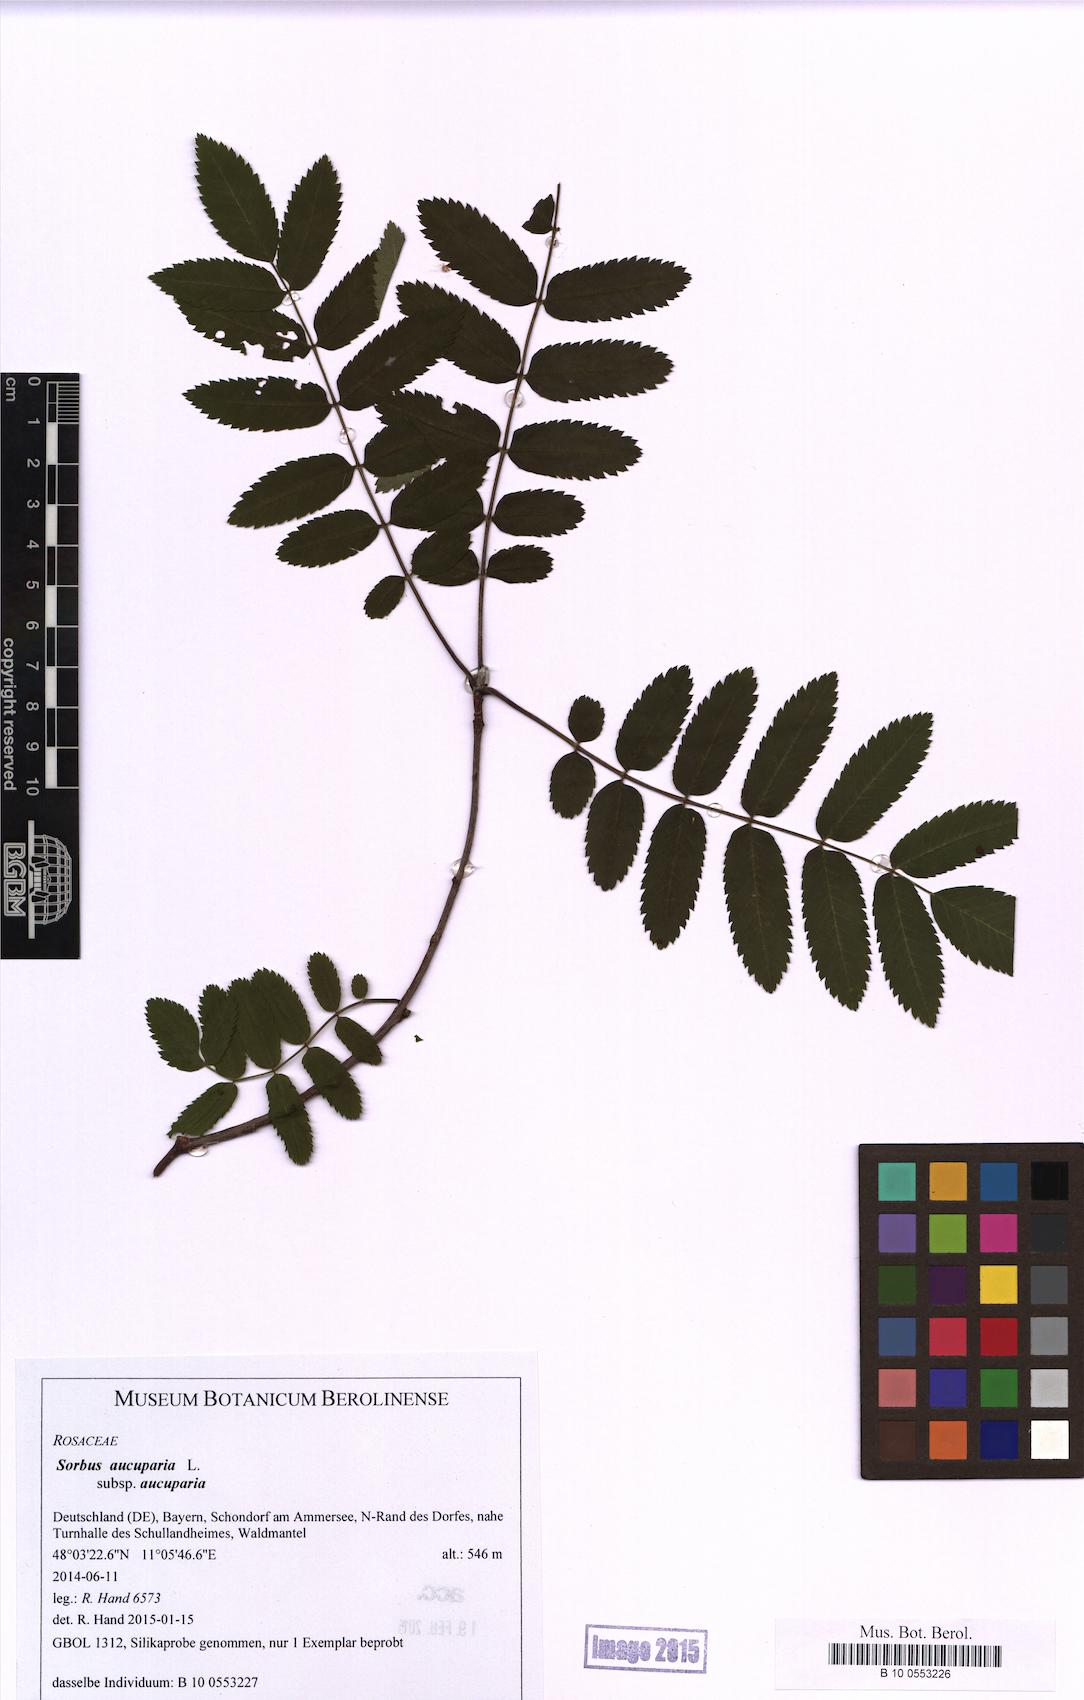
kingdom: Plantae
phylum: Tracheophyta
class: Magnoliopsida
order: Rosales
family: Rosaceae
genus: Sorbus
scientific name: Sorbus aucuparia
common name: Rowan
